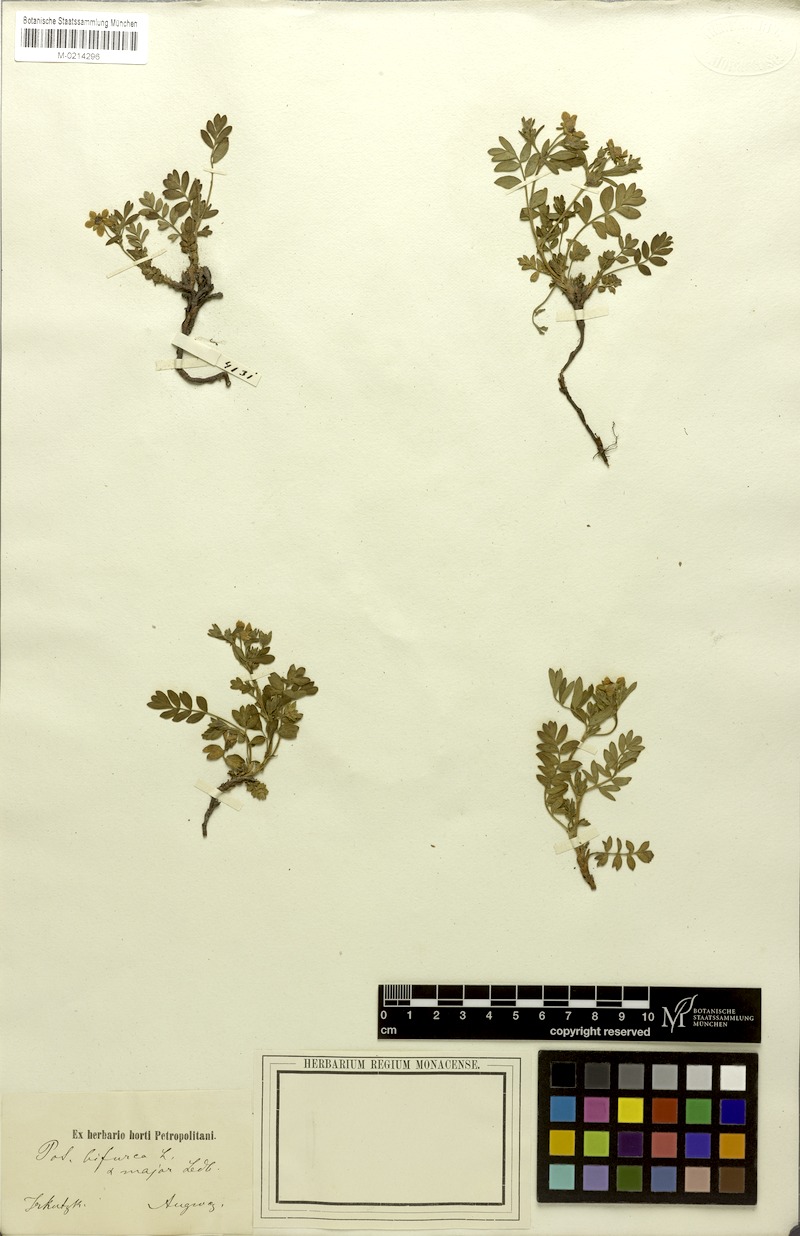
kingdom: Plantae
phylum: Tracheophyta
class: Magnoliopsida
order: Rosales
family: Rosaceae
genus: Sibbaldianthe
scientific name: Sibbaldianthe bifurca
